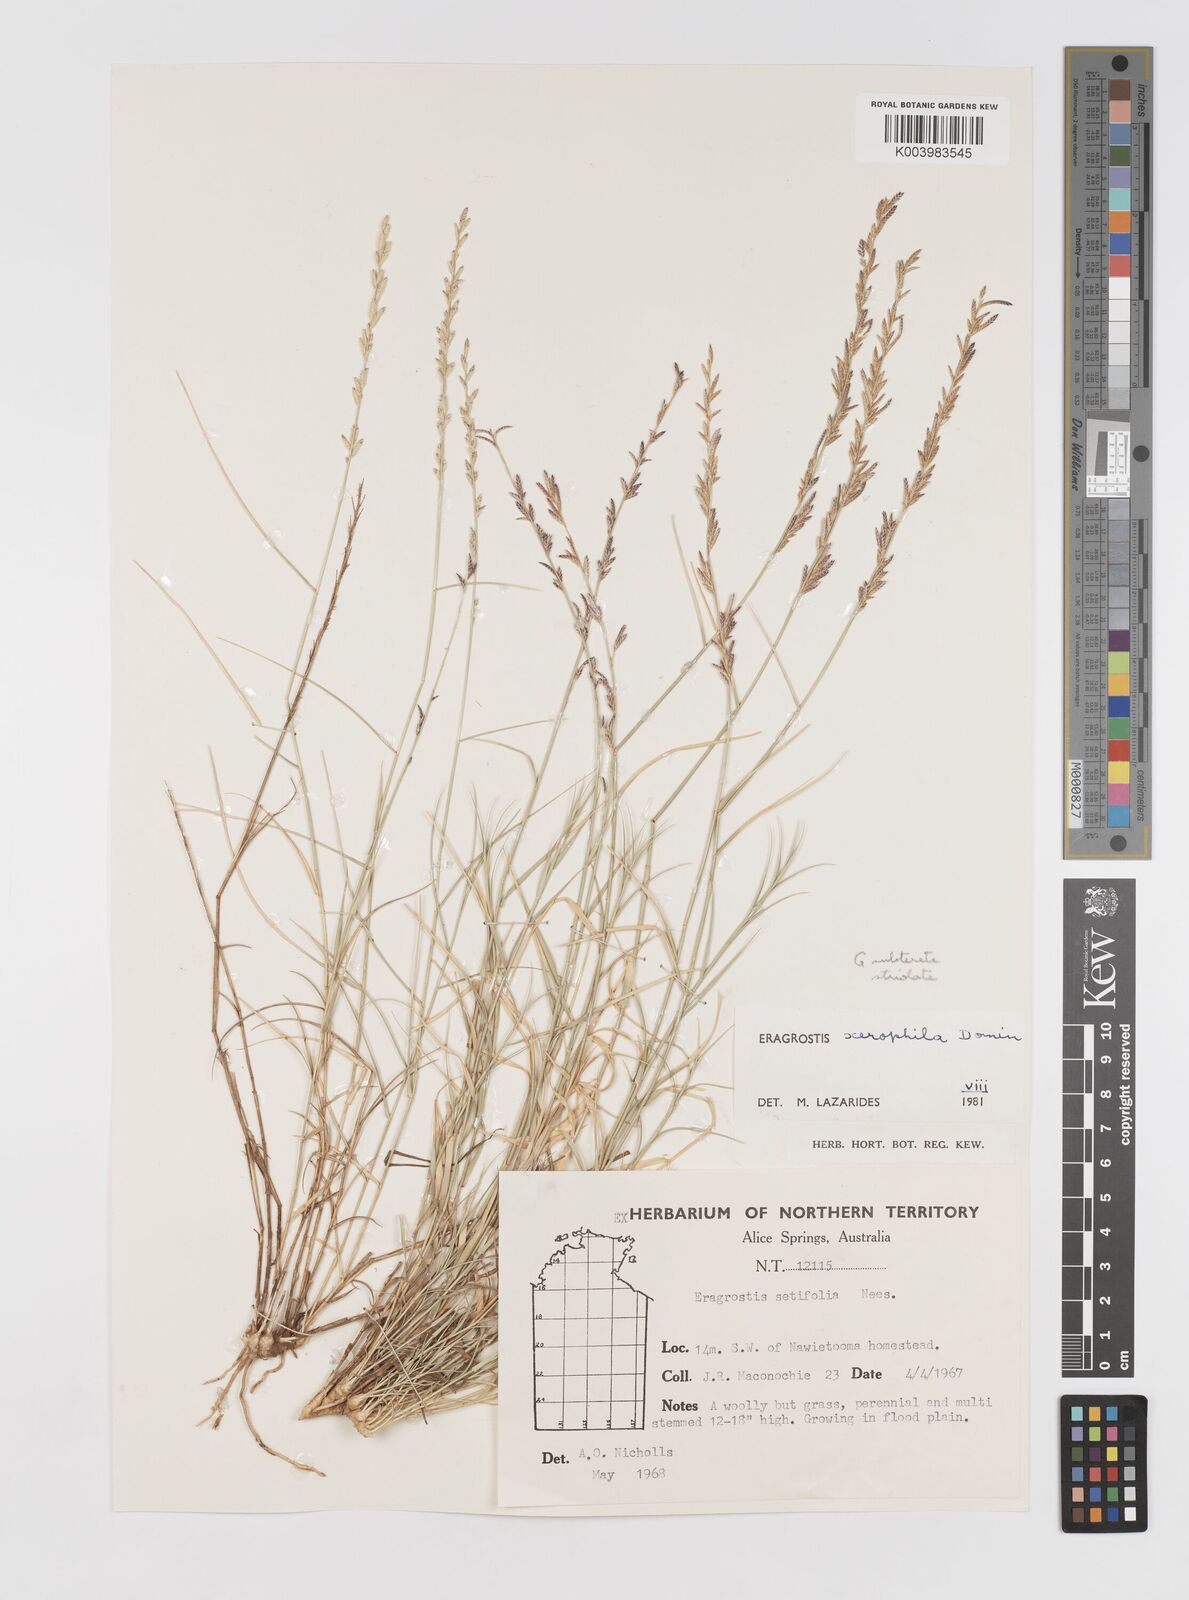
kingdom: Plantae
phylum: Tracheophyta
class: Liliopsida
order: Poales
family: Poaceae
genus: Eragrostis
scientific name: Eragrostis xerophila
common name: Wire wandarrie grass
